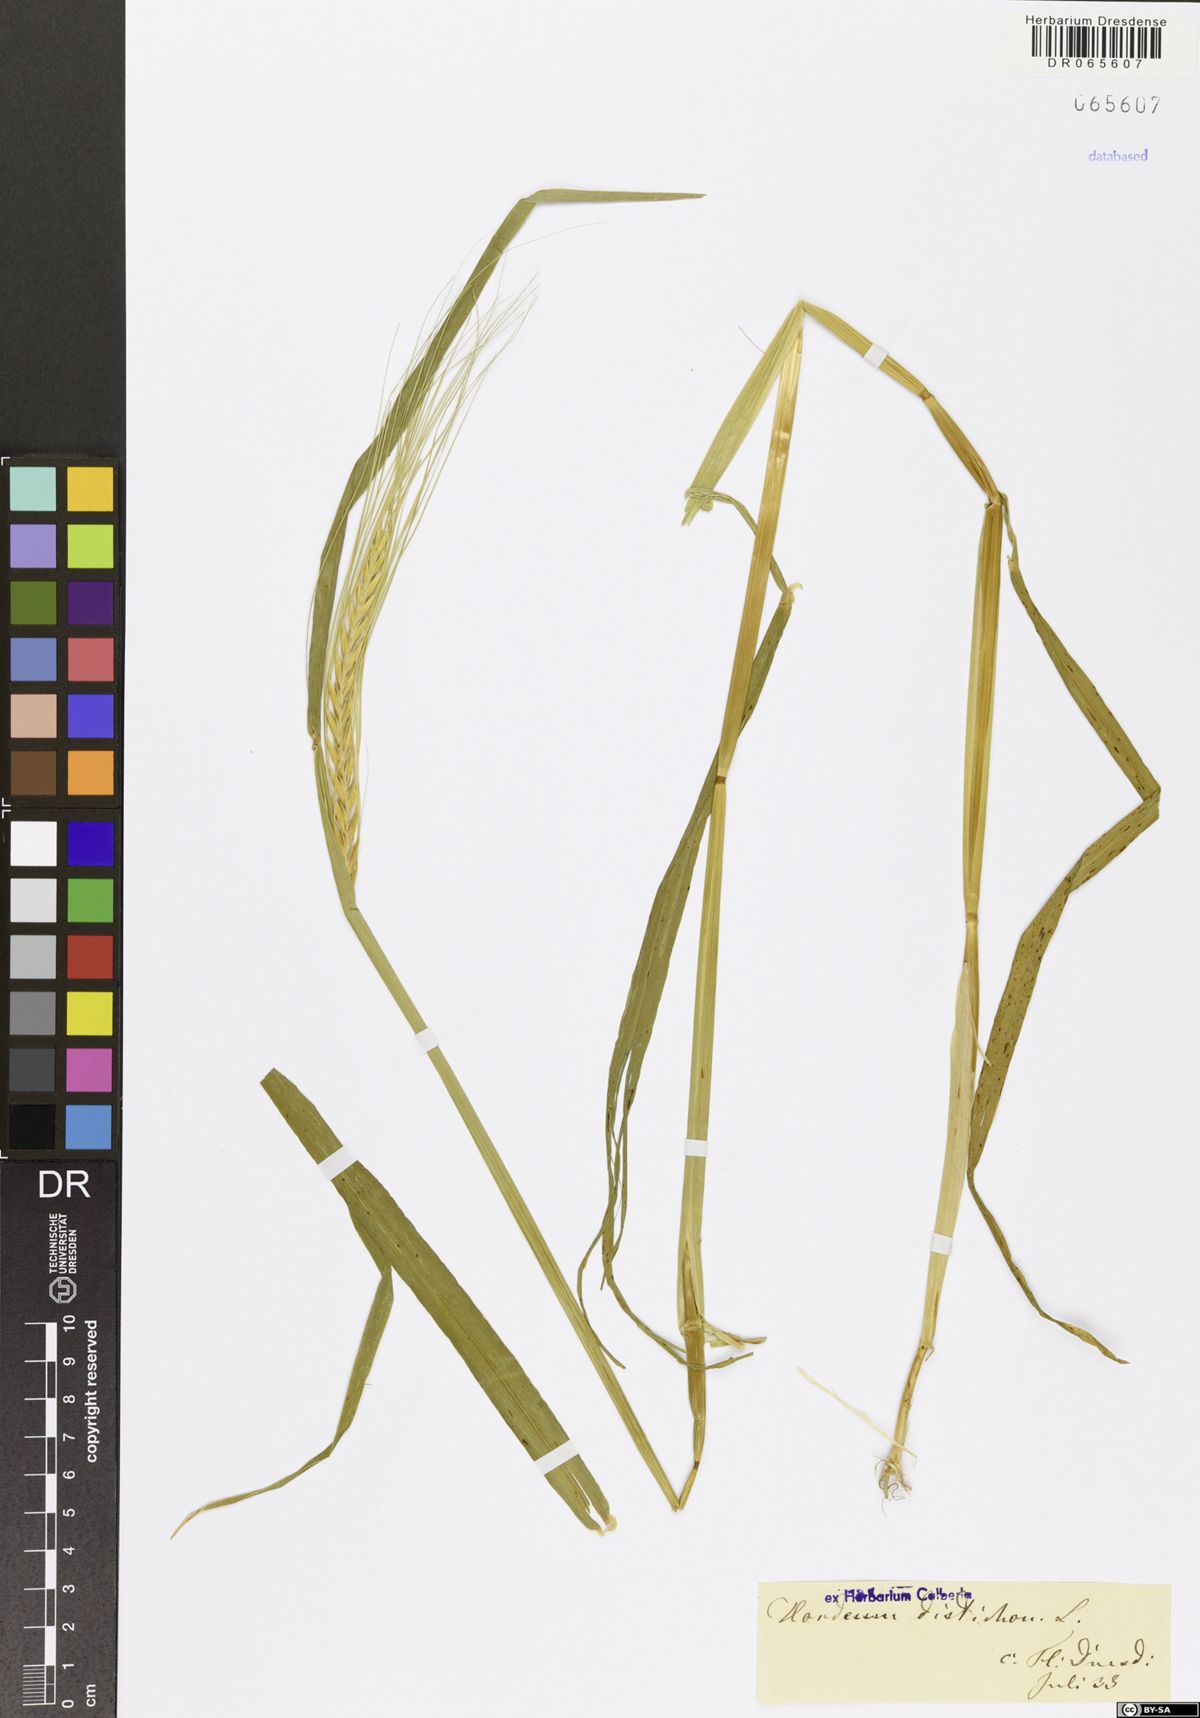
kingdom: Plantae
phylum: Tracheophyta
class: Liliopsida
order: Poales
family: Poaceae
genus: Hordeum
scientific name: Hordeum distichon
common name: Two-rowed barley
